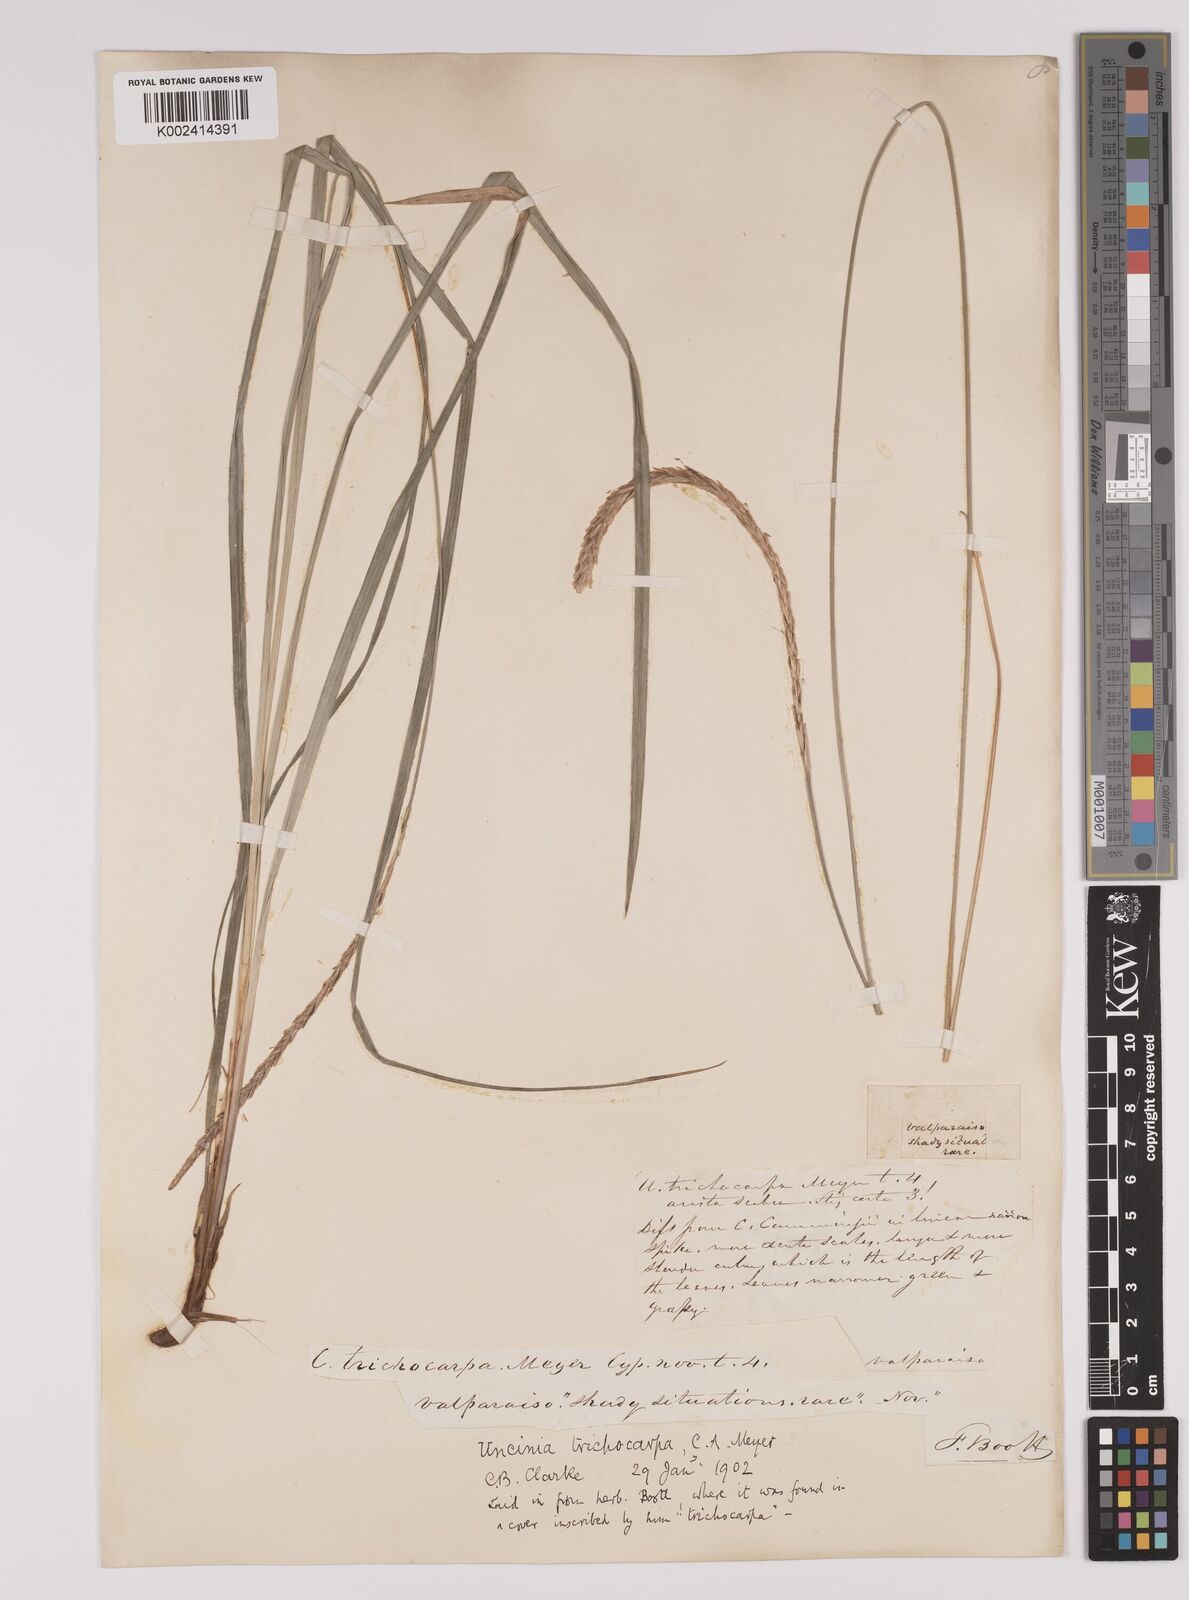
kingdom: Plantae
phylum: Tracheophyta
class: Liliopsida
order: Poales
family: Cyperaceae
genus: Carex
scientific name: Carex quinquin
